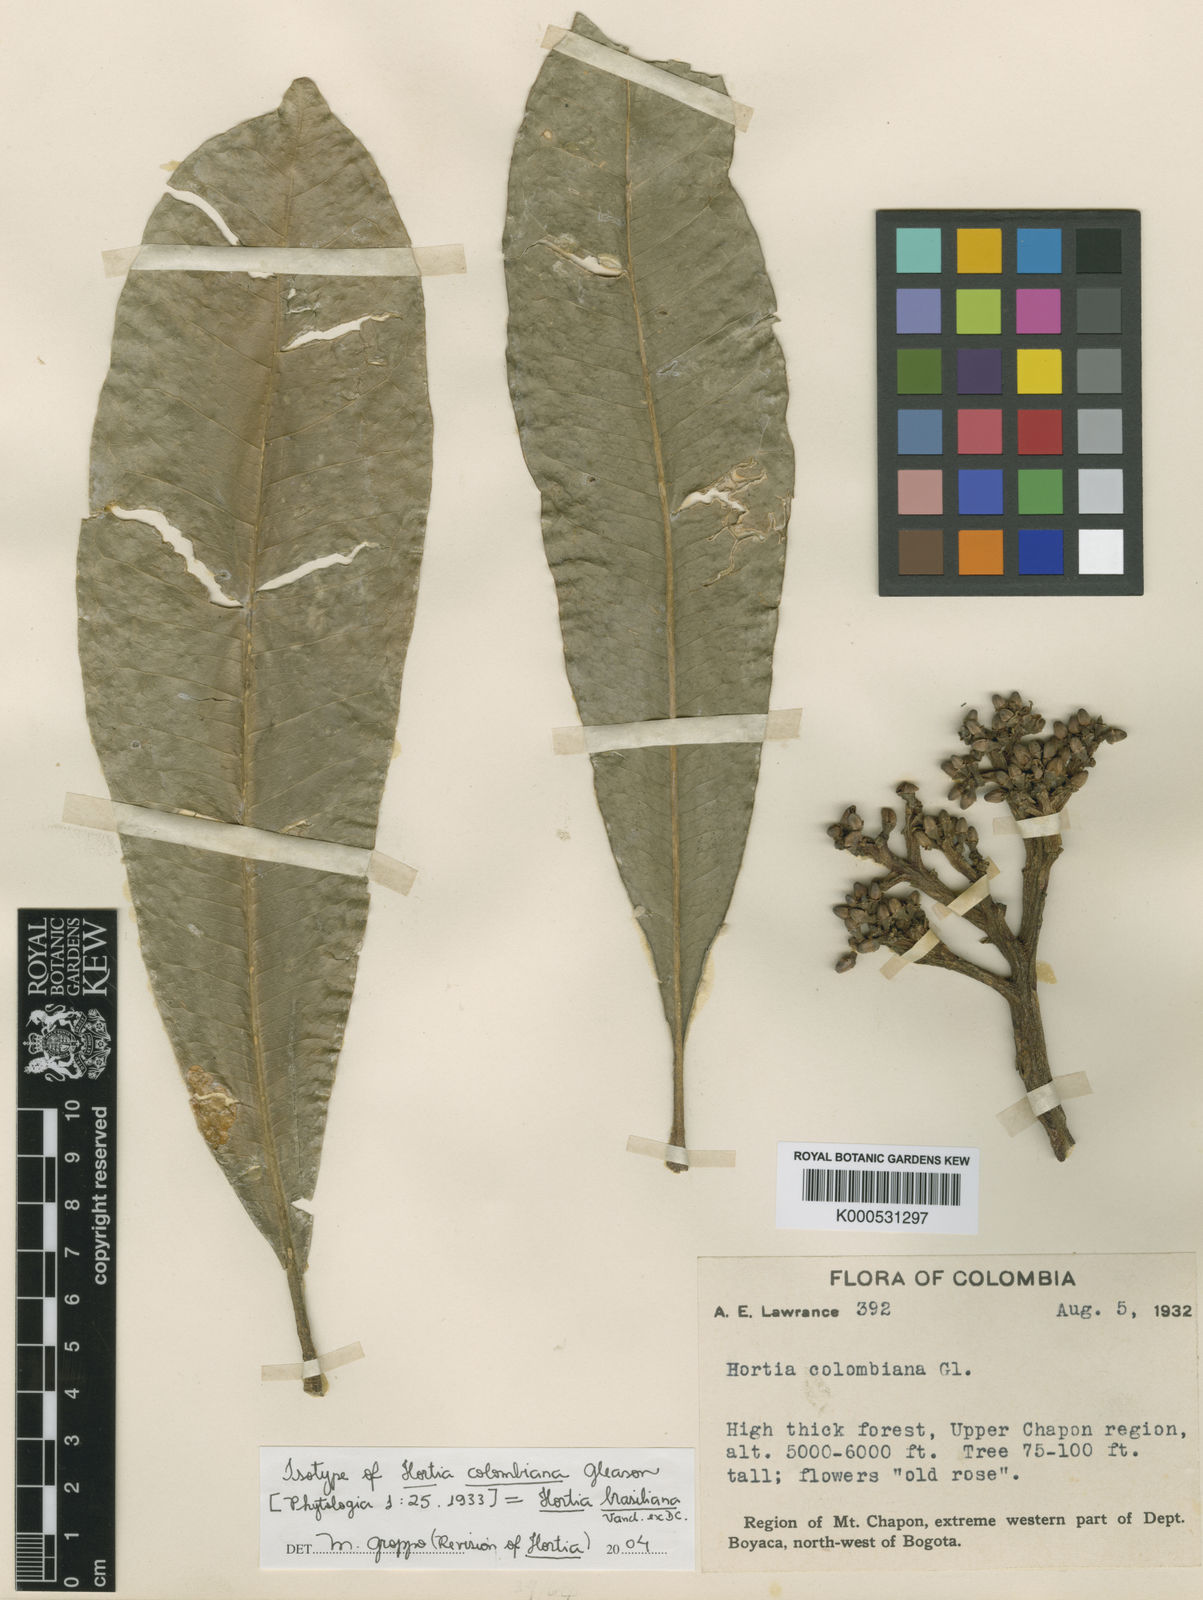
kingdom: Plantae
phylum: Tracheophyta
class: Magnoliopsida
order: Sapindales
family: Rutaceae
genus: Hortia
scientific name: Hortia brasiliana
